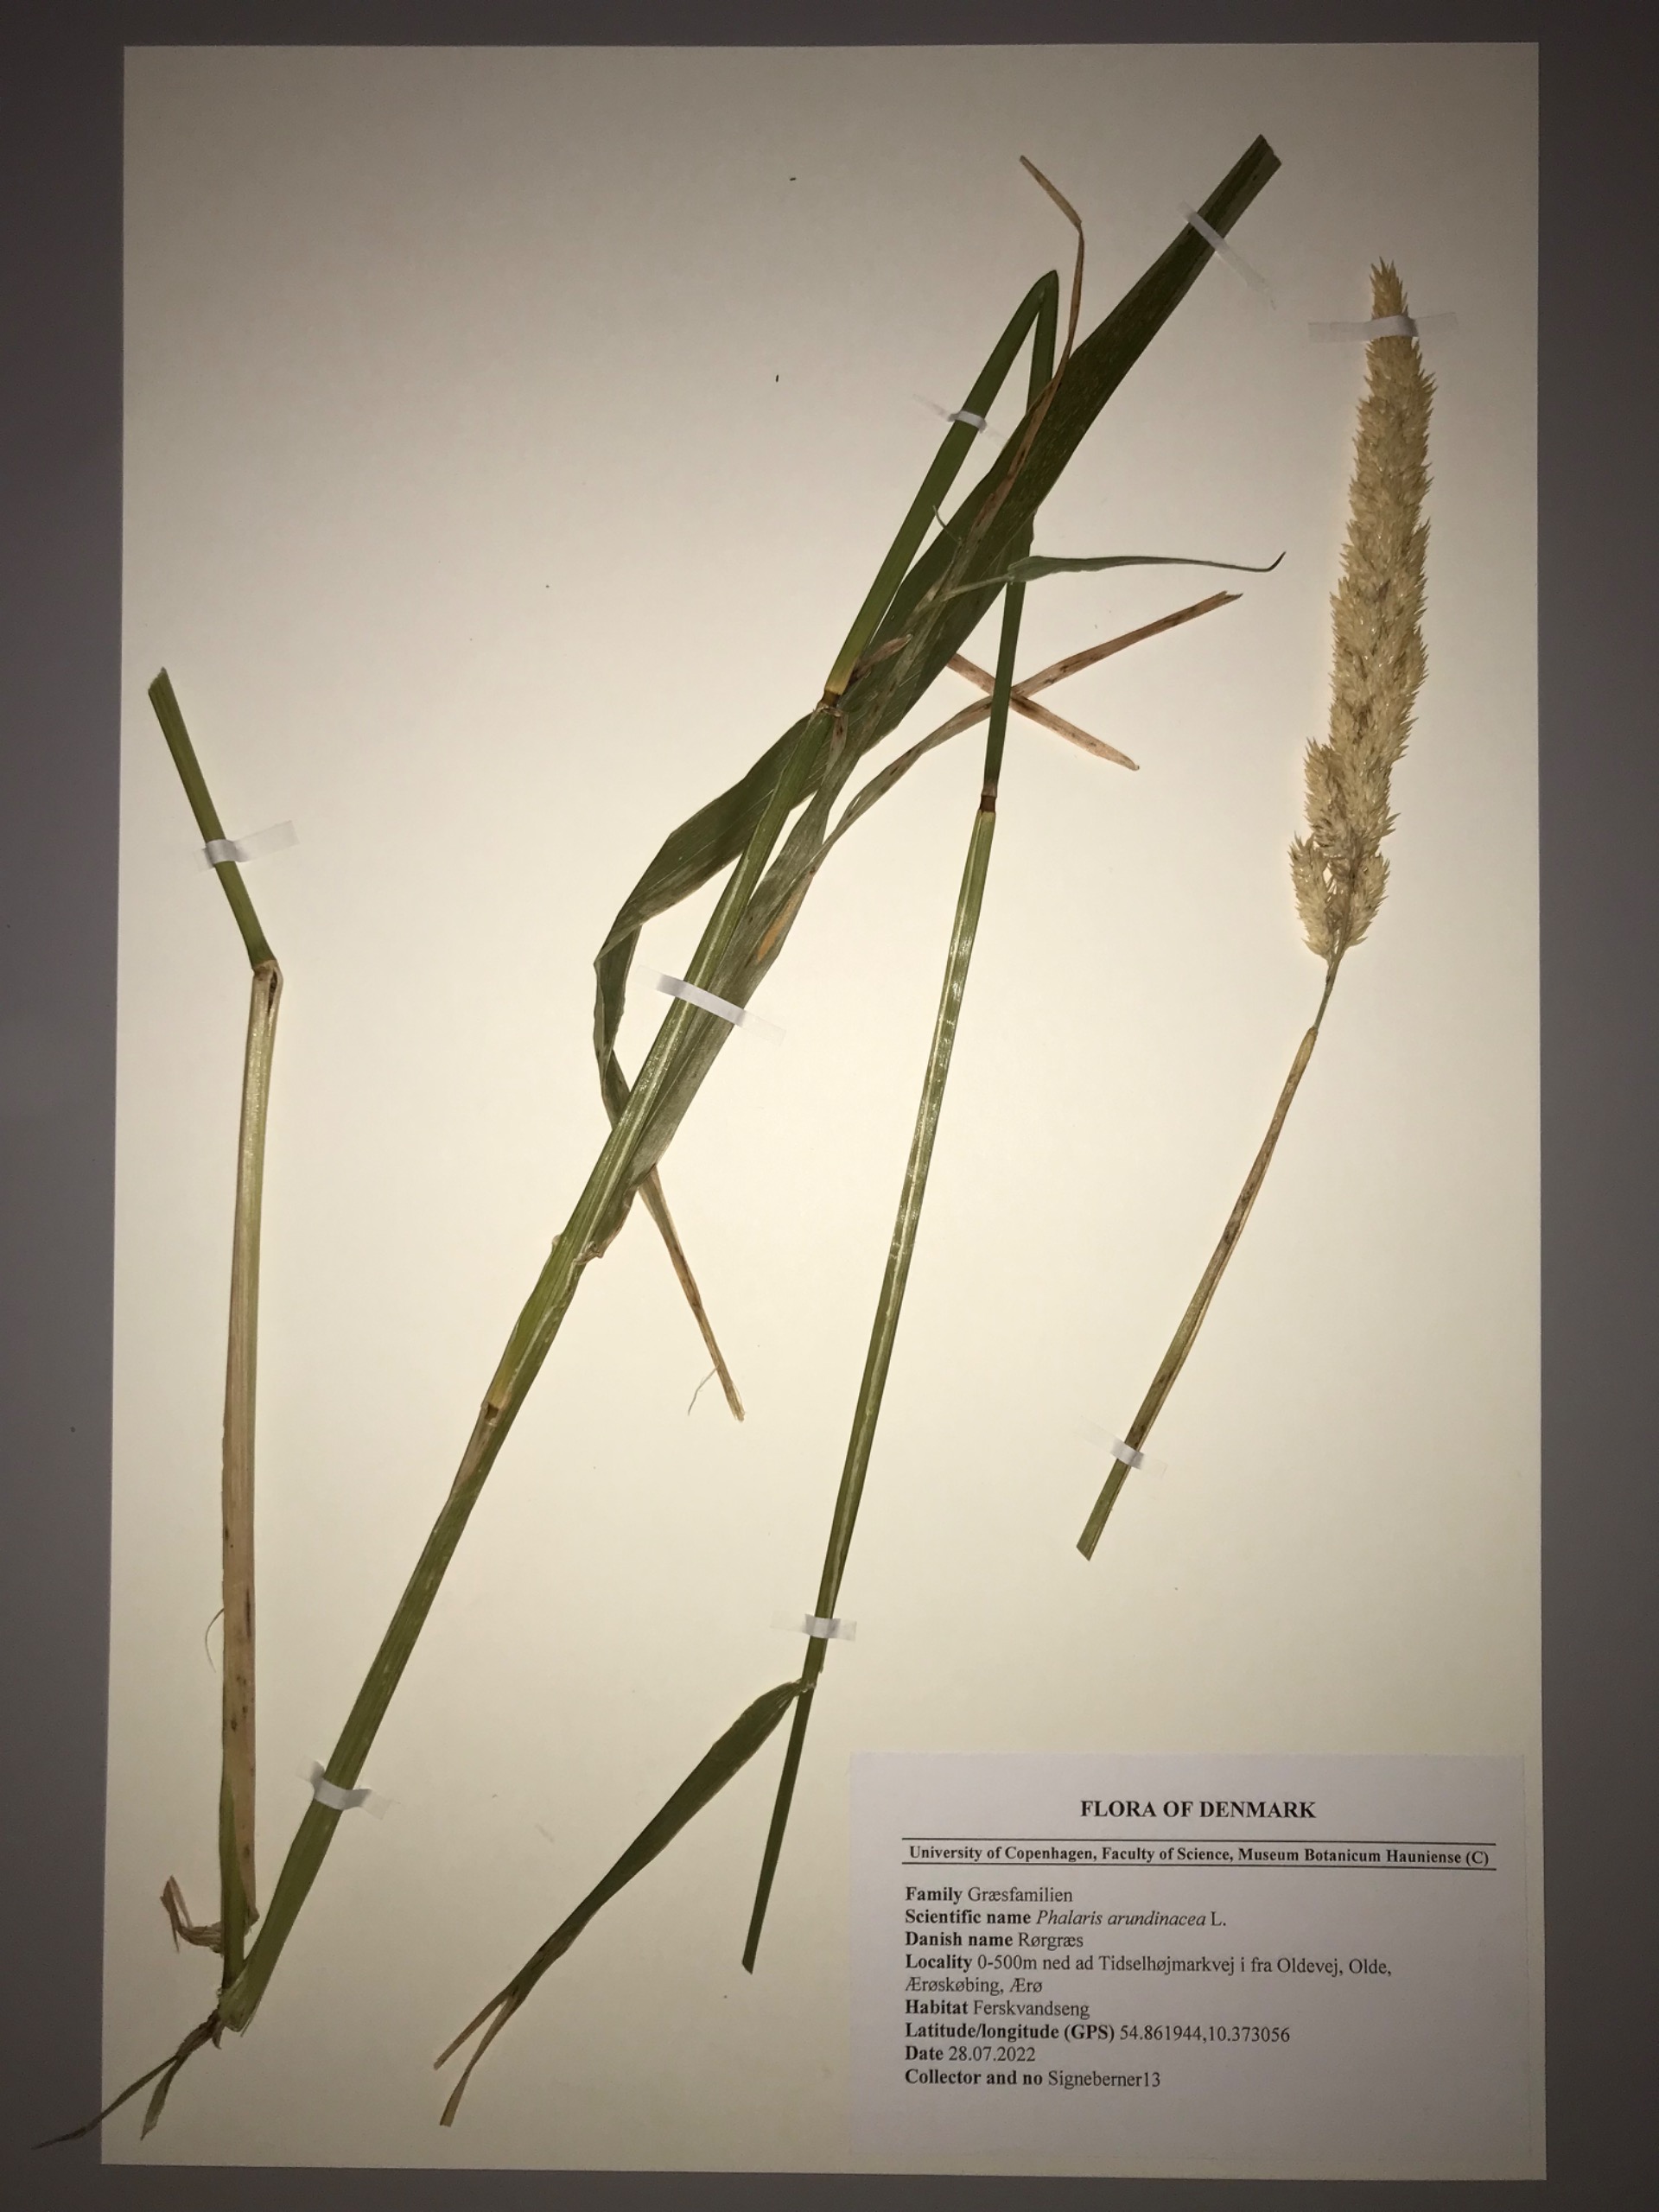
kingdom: Plantae
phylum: Tracheophyta
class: Liliopsida
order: Poales
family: Poaceae
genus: Phalaris
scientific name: Phalaris arundinacea
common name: Rørgræs
